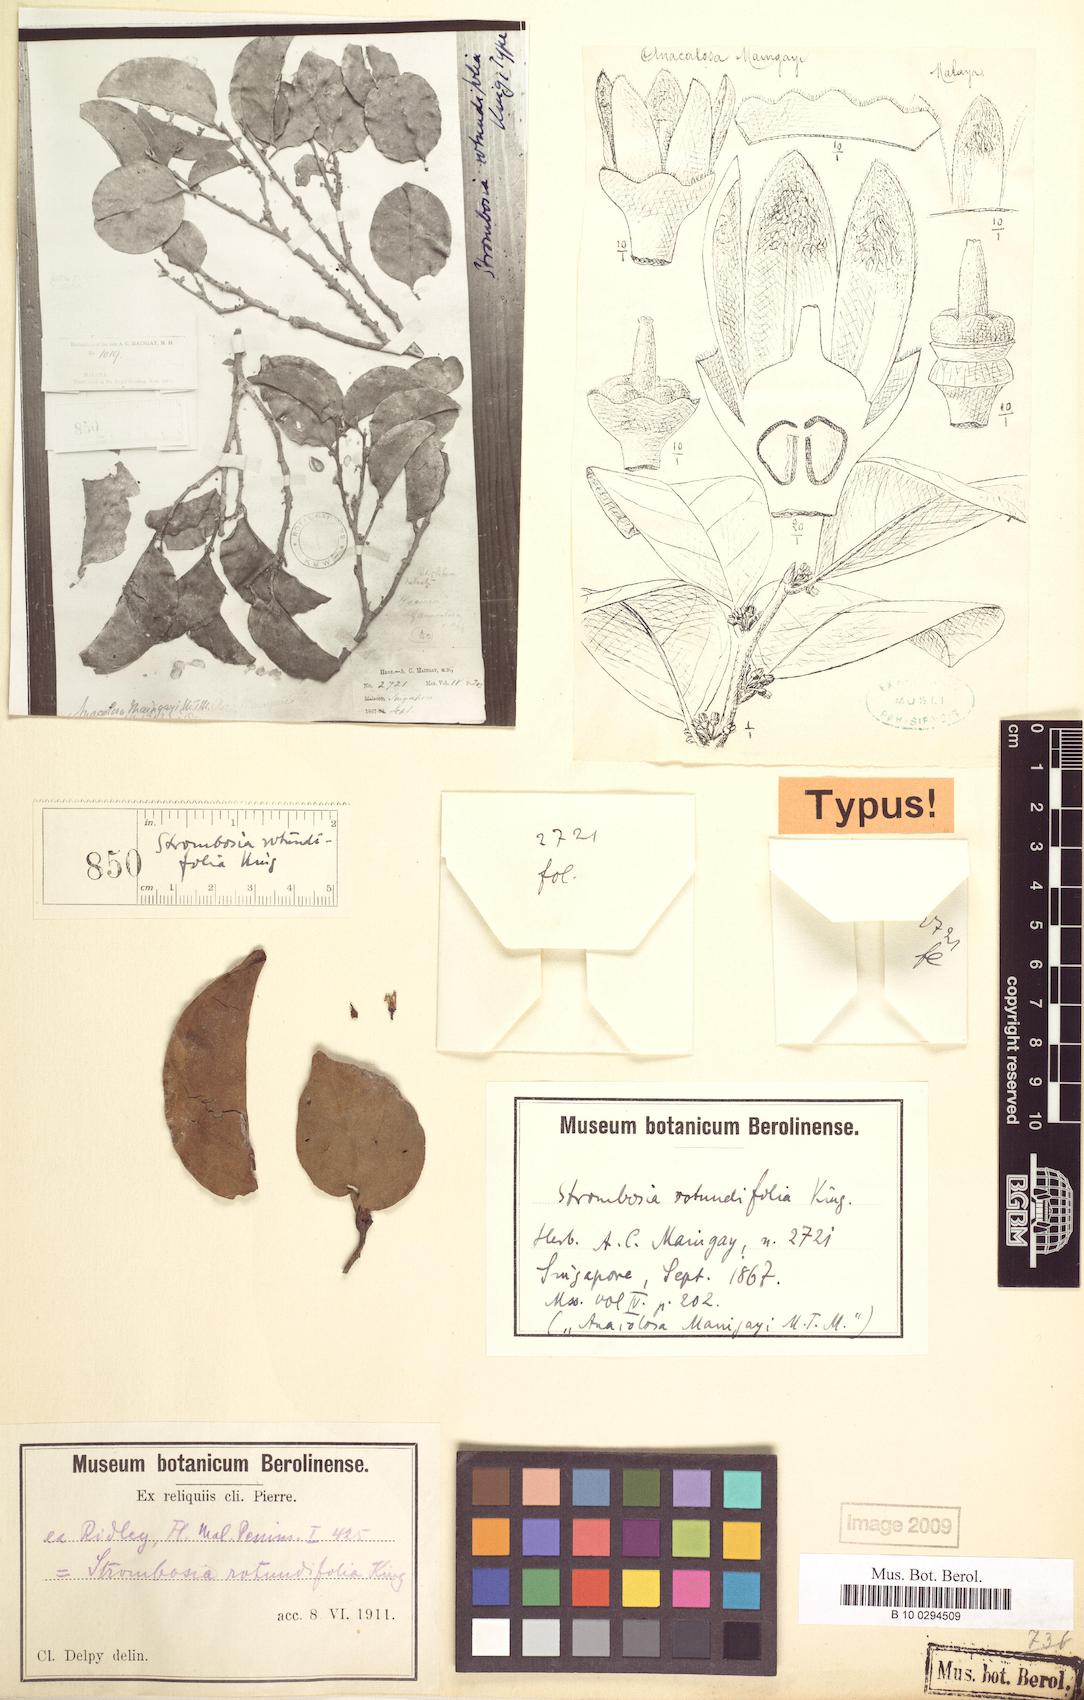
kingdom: Plantae
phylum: Tracheophyta
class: Magnoliopsida
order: Santalales
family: Strombosiaceae
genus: Strombosia
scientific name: Strombosia ceylanica
